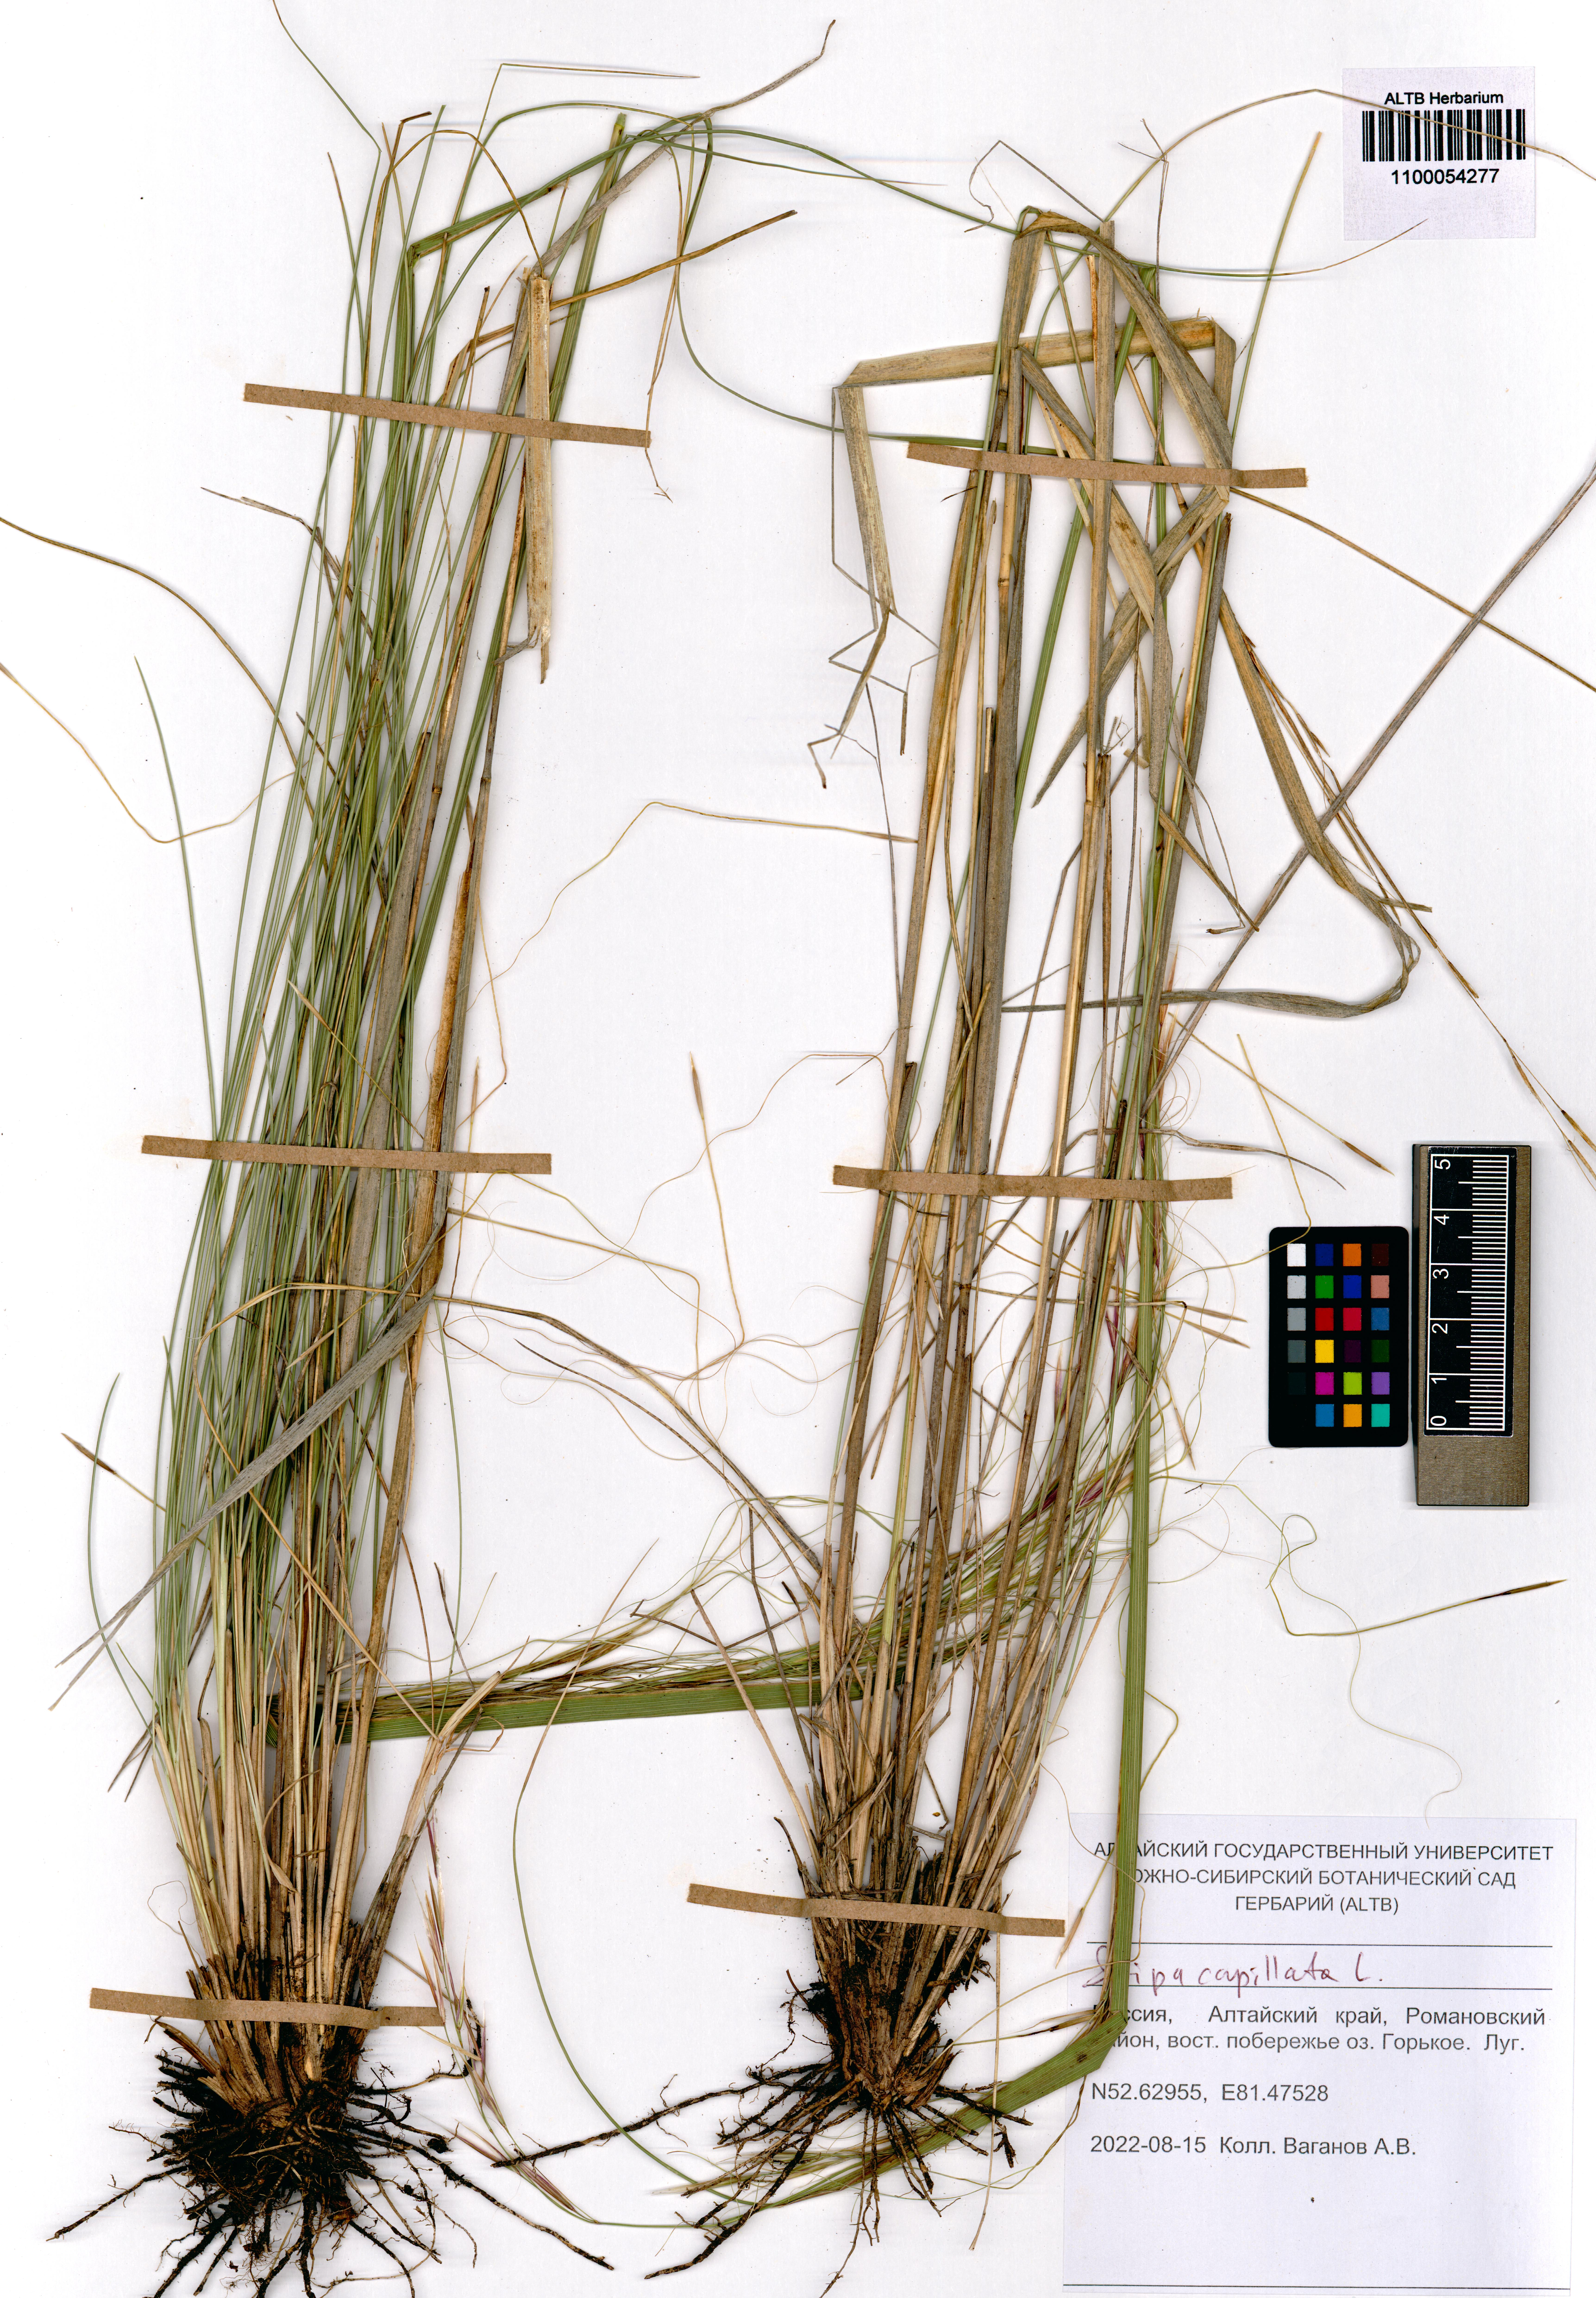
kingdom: Plantae
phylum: Tracheophyta
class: Liliopsida
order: Poales
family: Poaceae
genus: Stipa
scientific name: Stipa capillata
